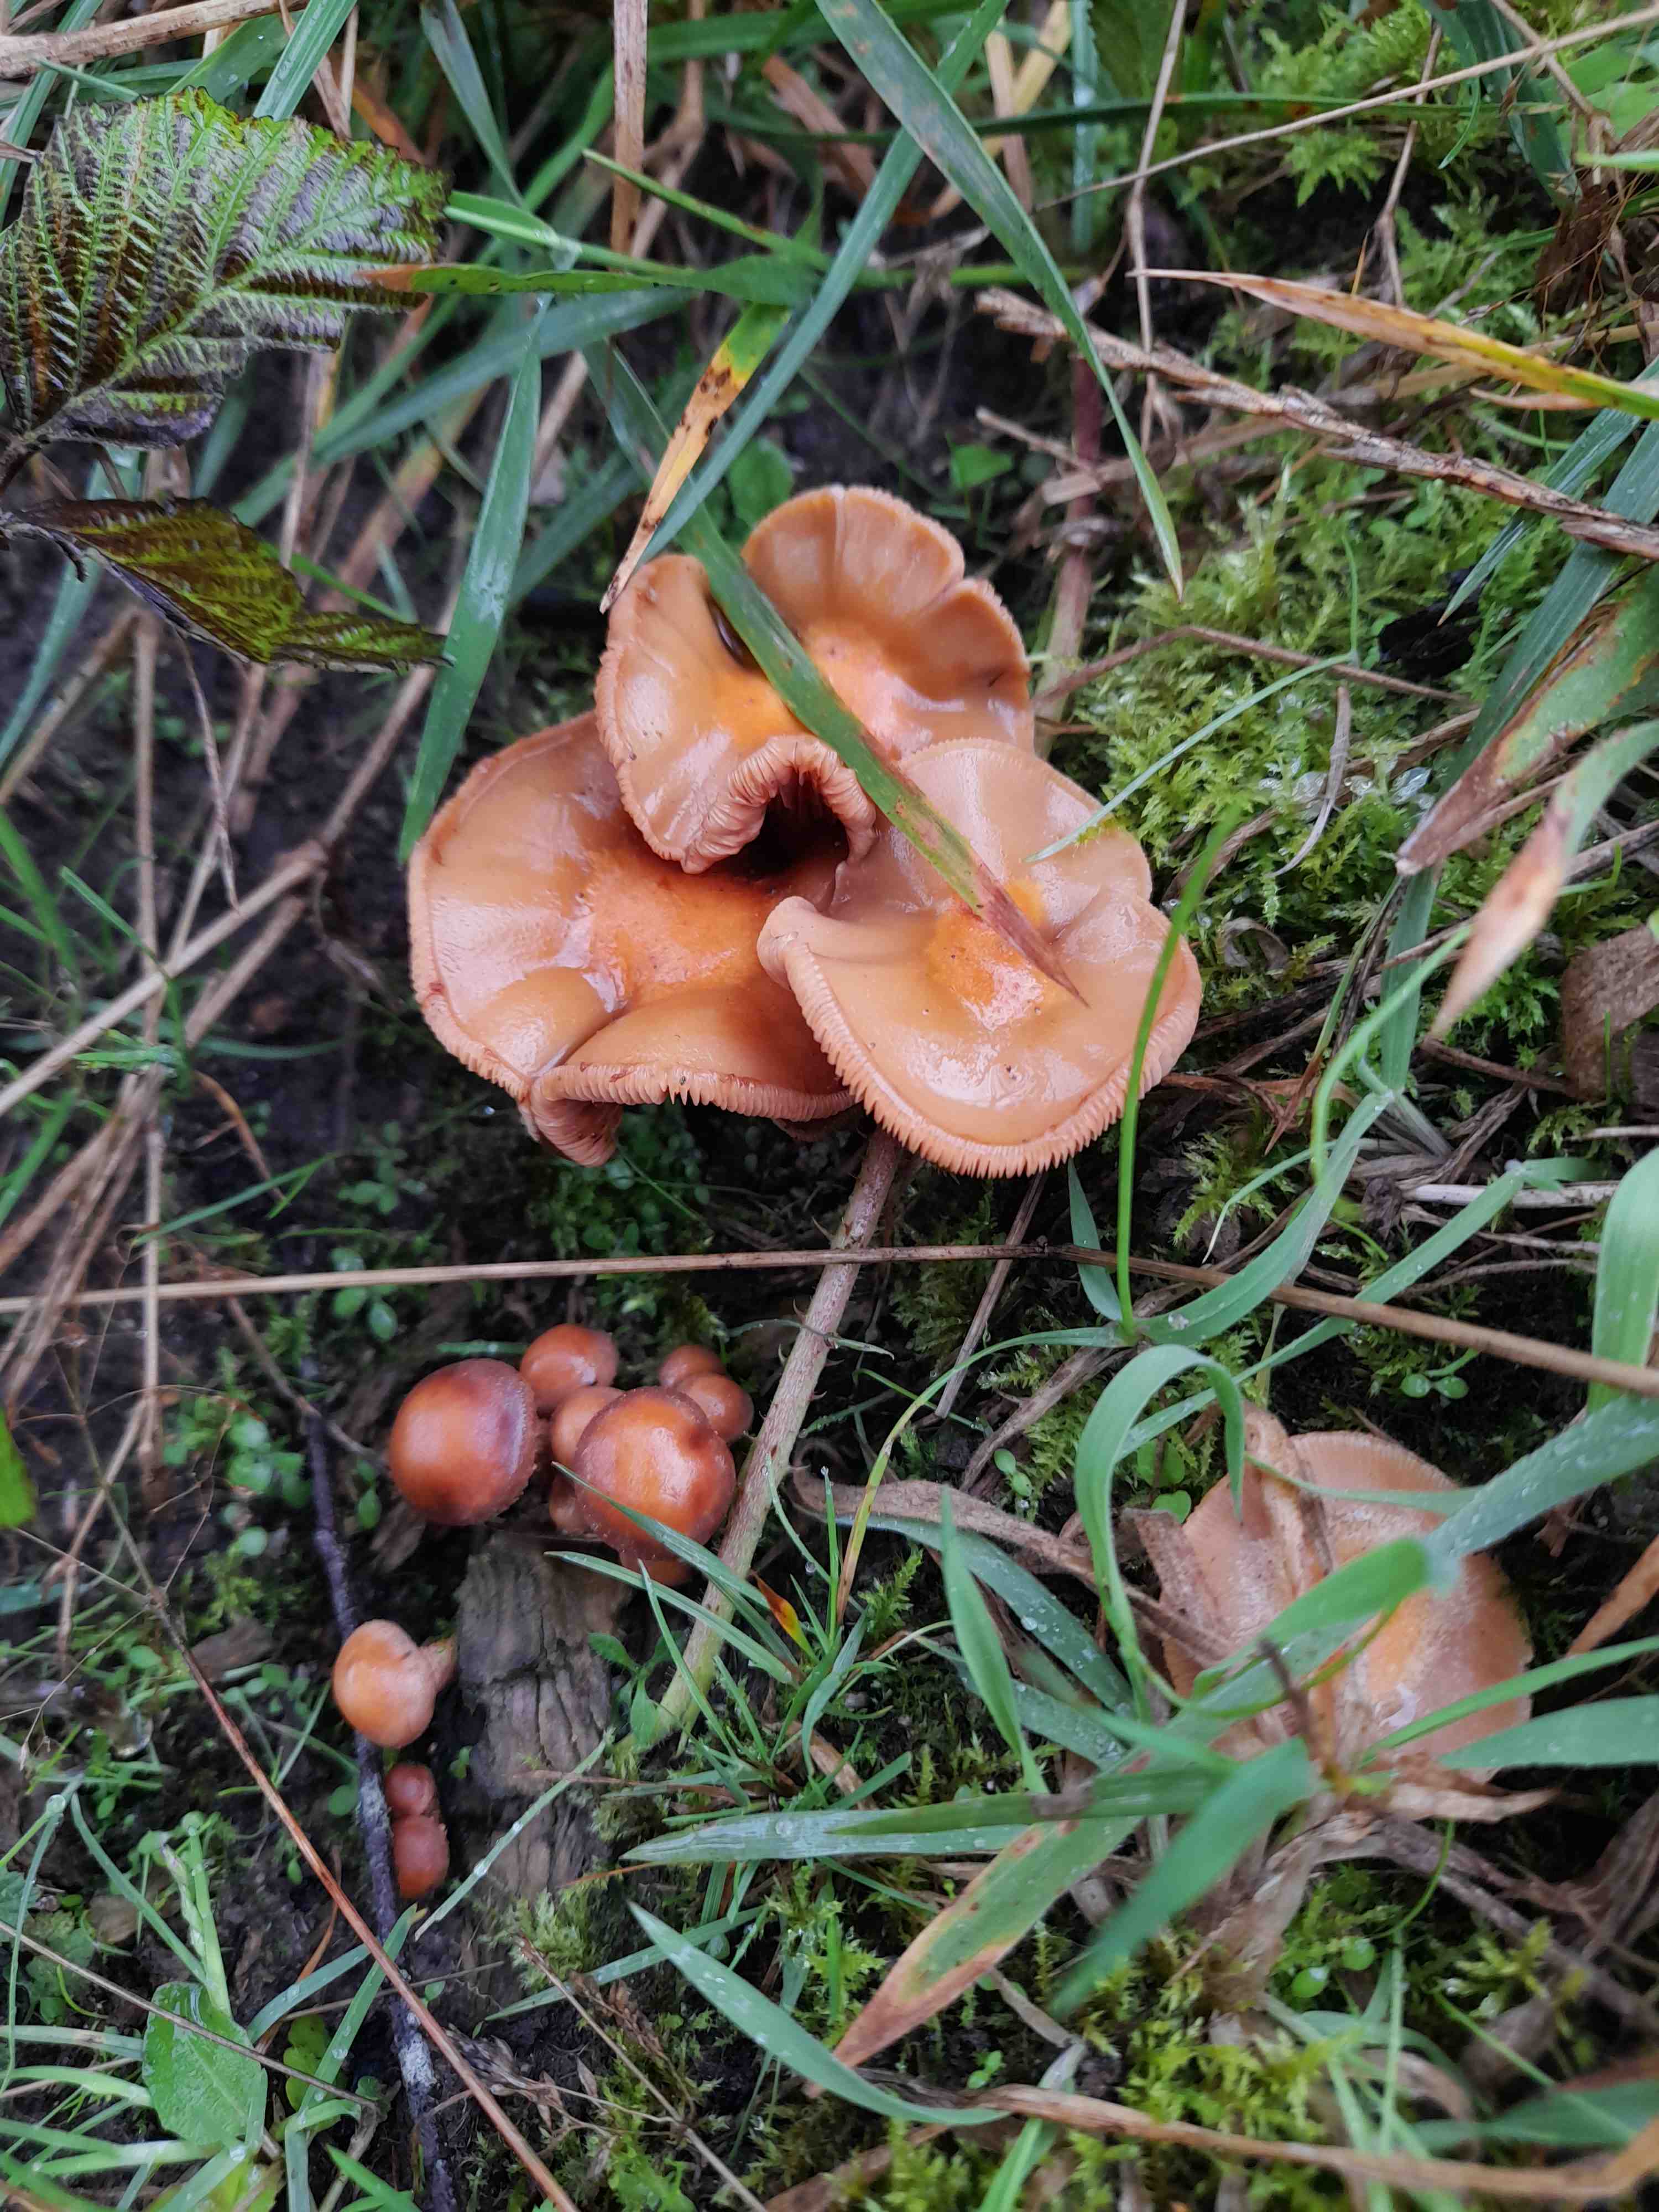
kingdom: Fungi
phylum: Basidiomycota
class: Agaricomycetes
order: Agaricales
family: Strophariaceae
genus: Kuehneromyces
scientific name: Kuehneromyces mutabilis
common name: foranderlig skælhat
